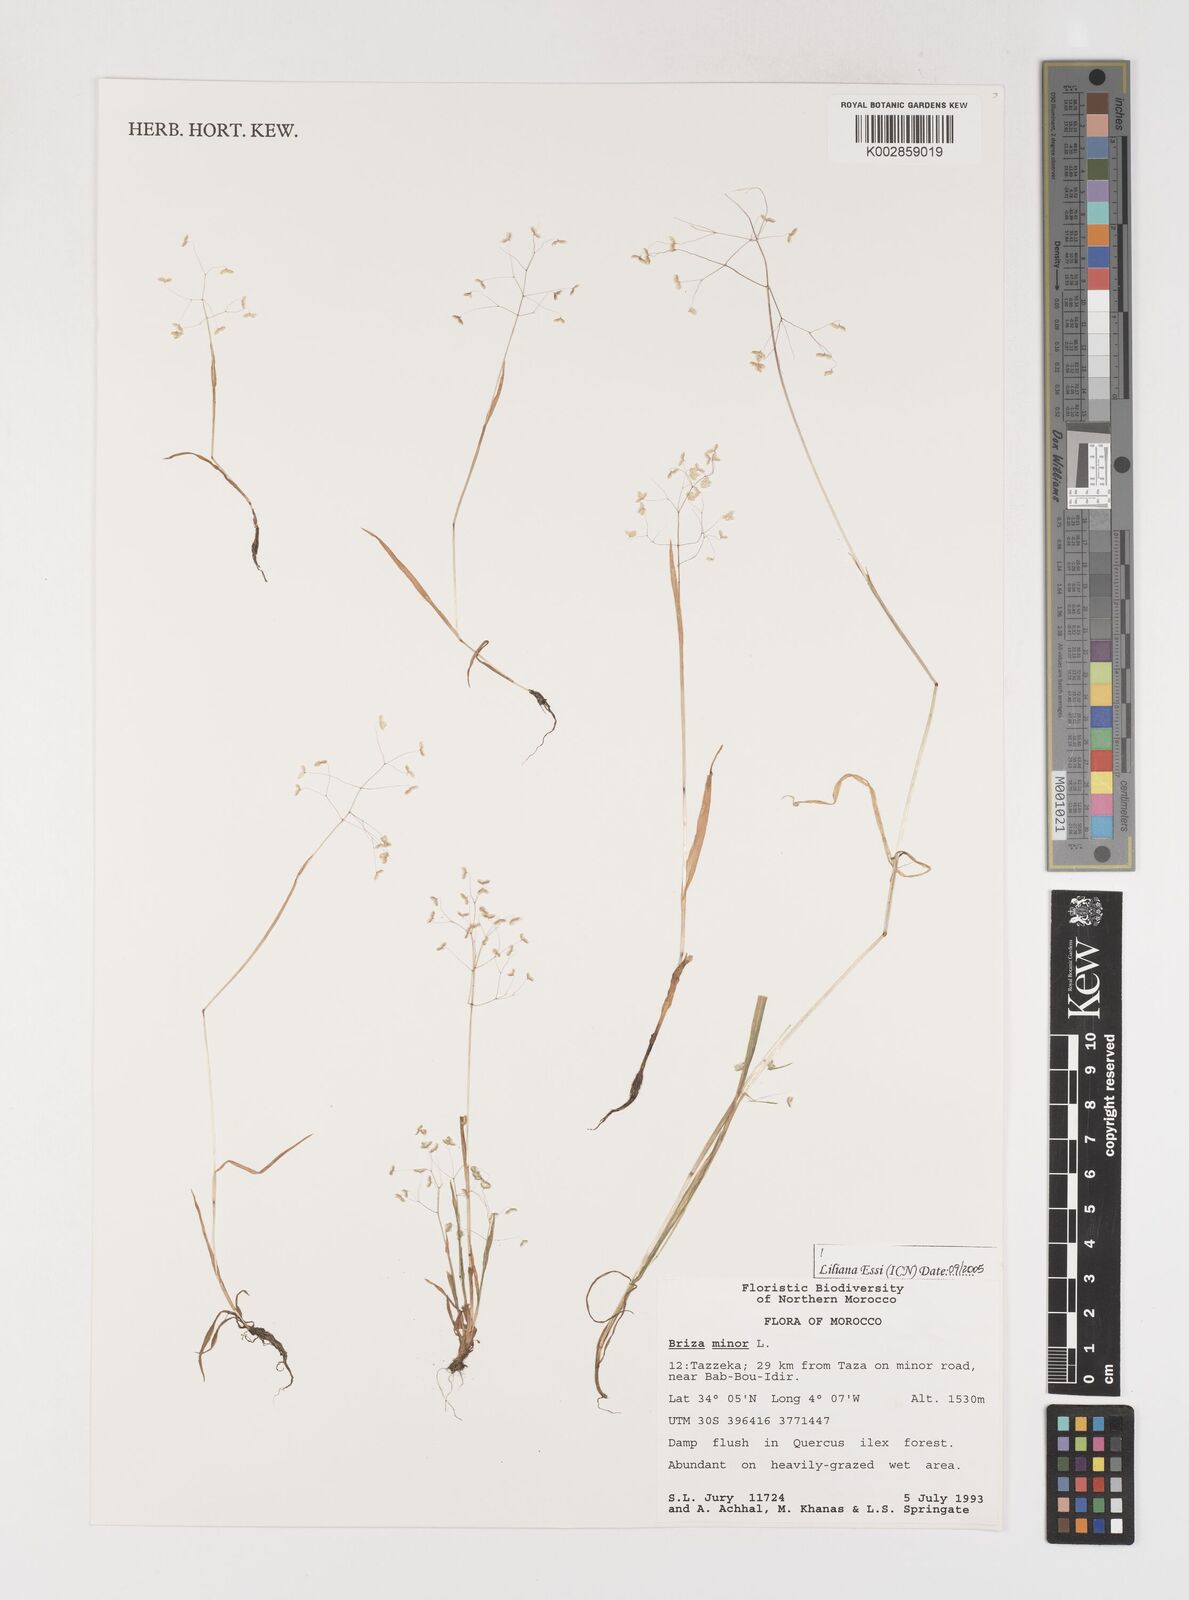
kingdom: Plantae
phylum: Tracheophyta
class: Liliopsida
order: Poales
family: Poaceae
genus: Briza
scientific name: Briza minor
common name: Lesser quaking-grass
